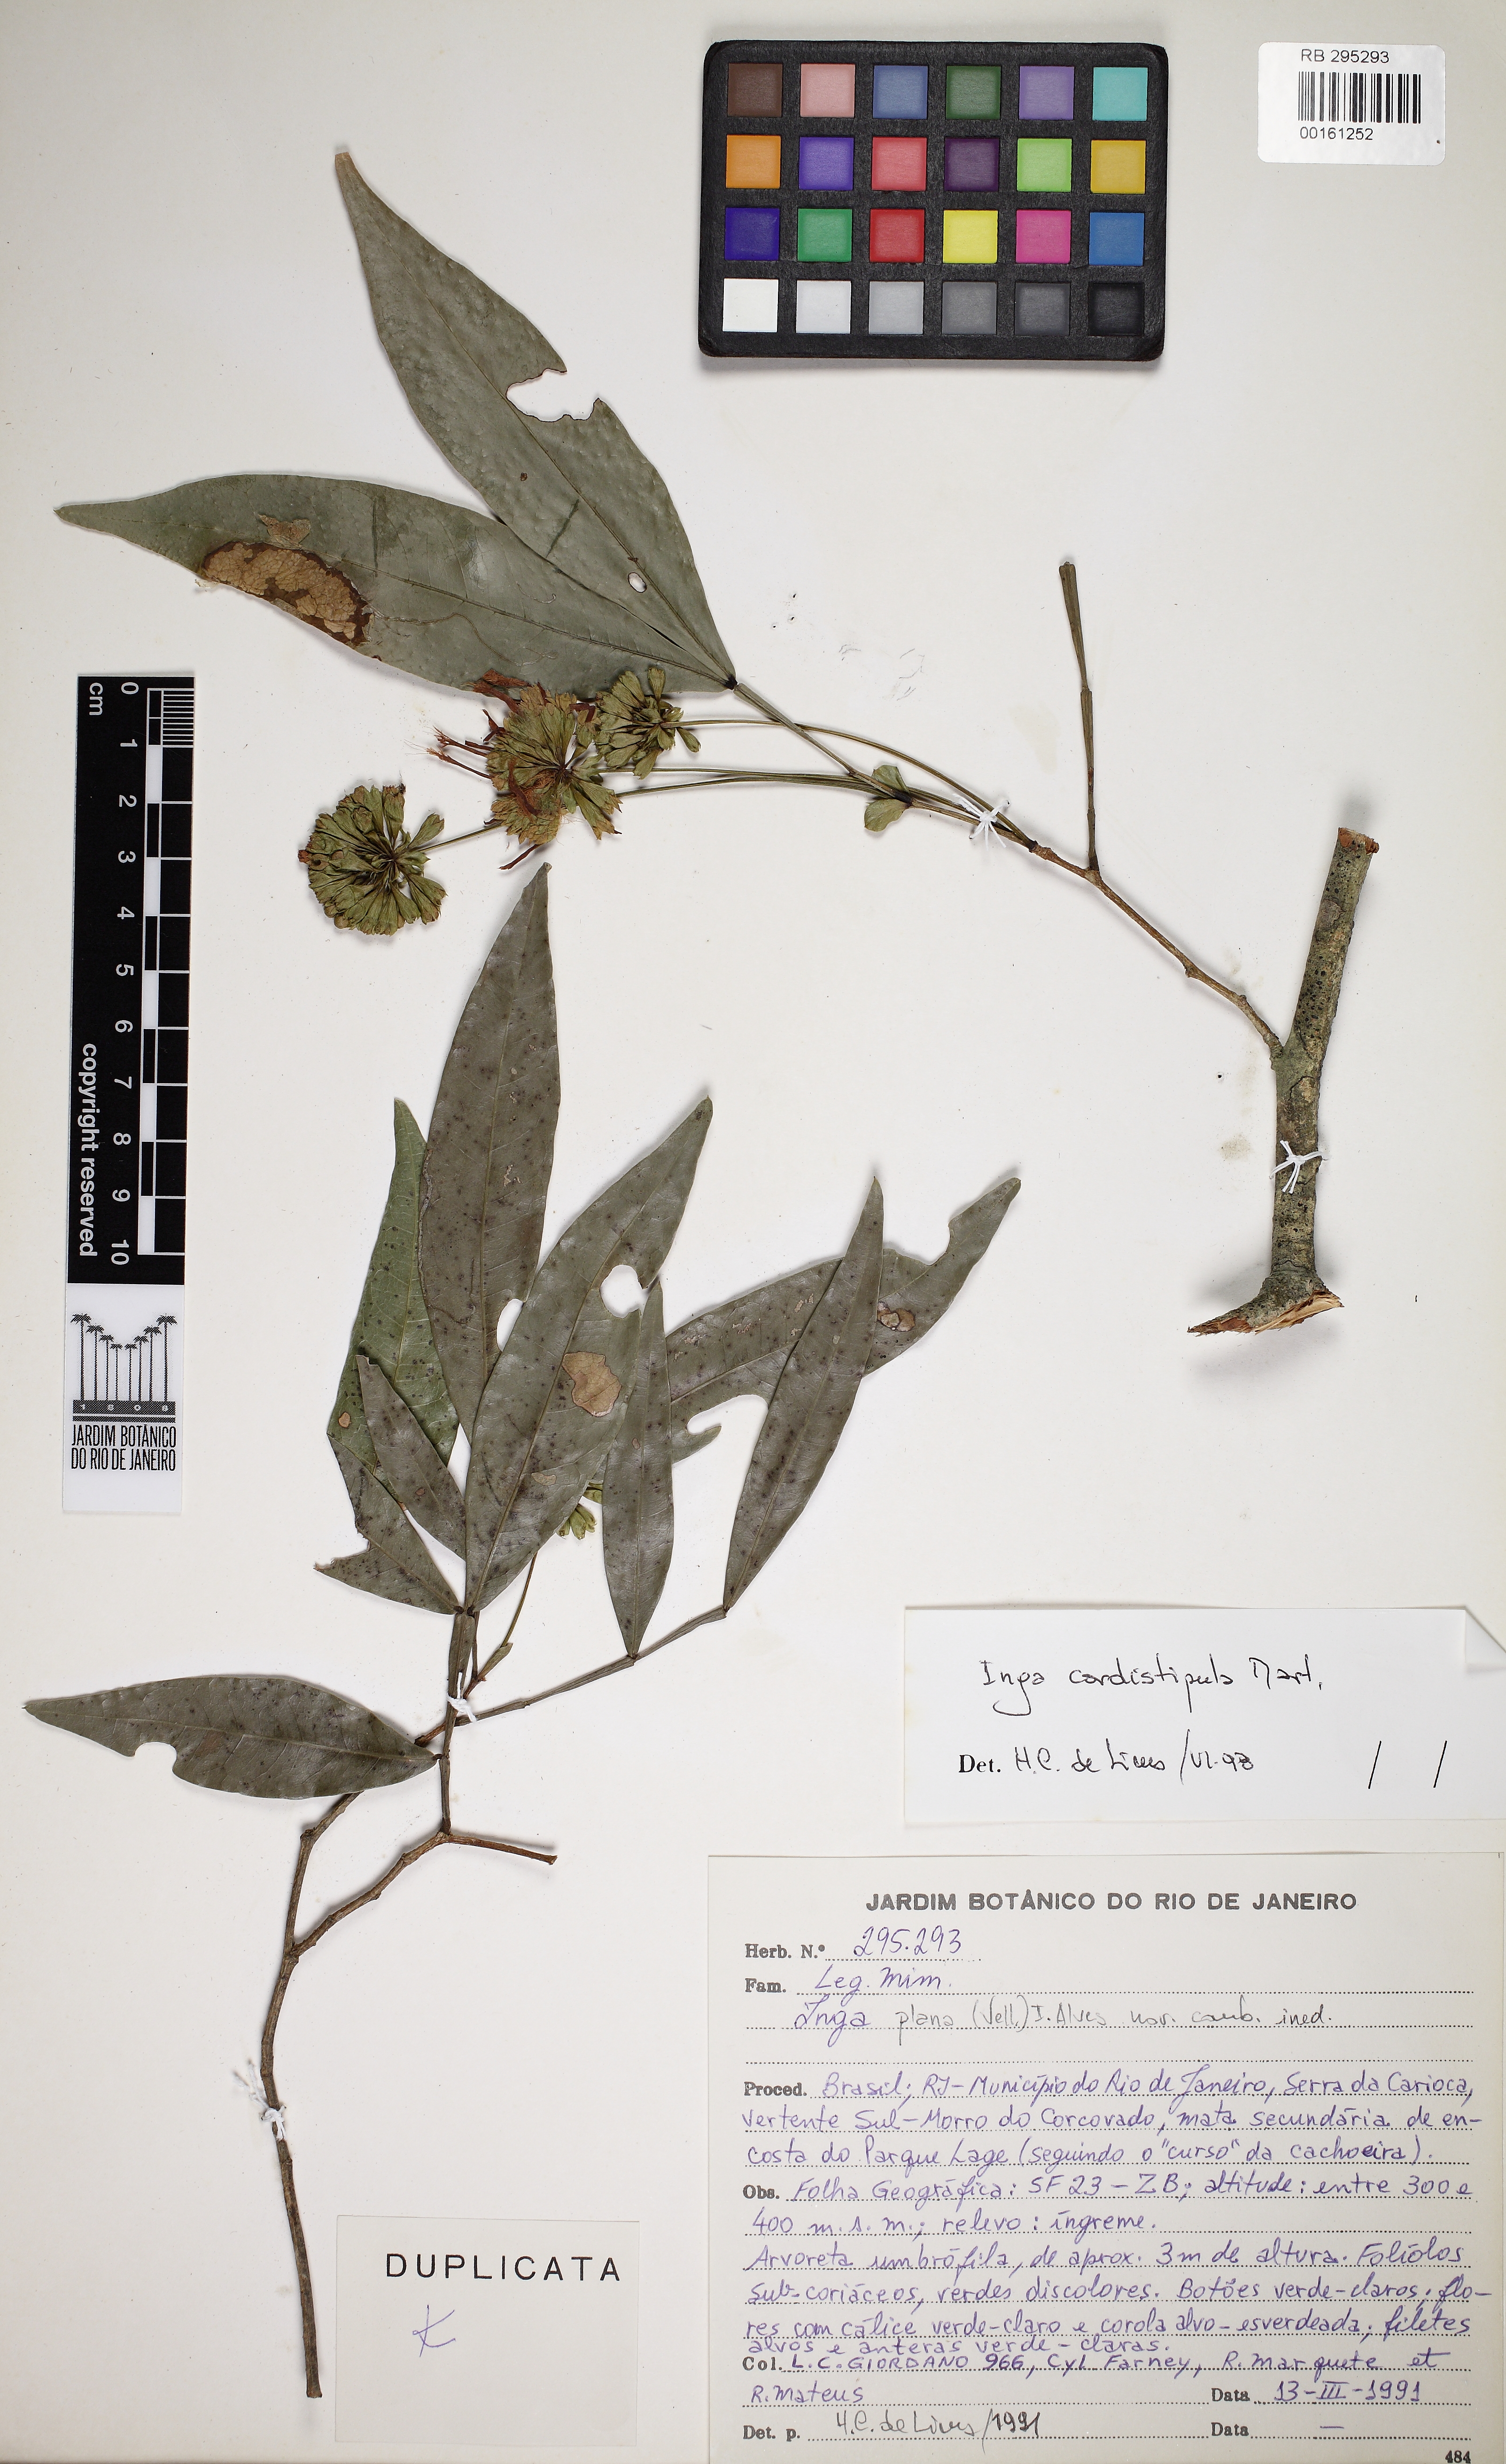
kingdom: Plantae
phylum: Tracheophyta
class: Magnoliopsida
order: Fabales
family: Fabaceae
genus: Inga
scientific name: Inga
